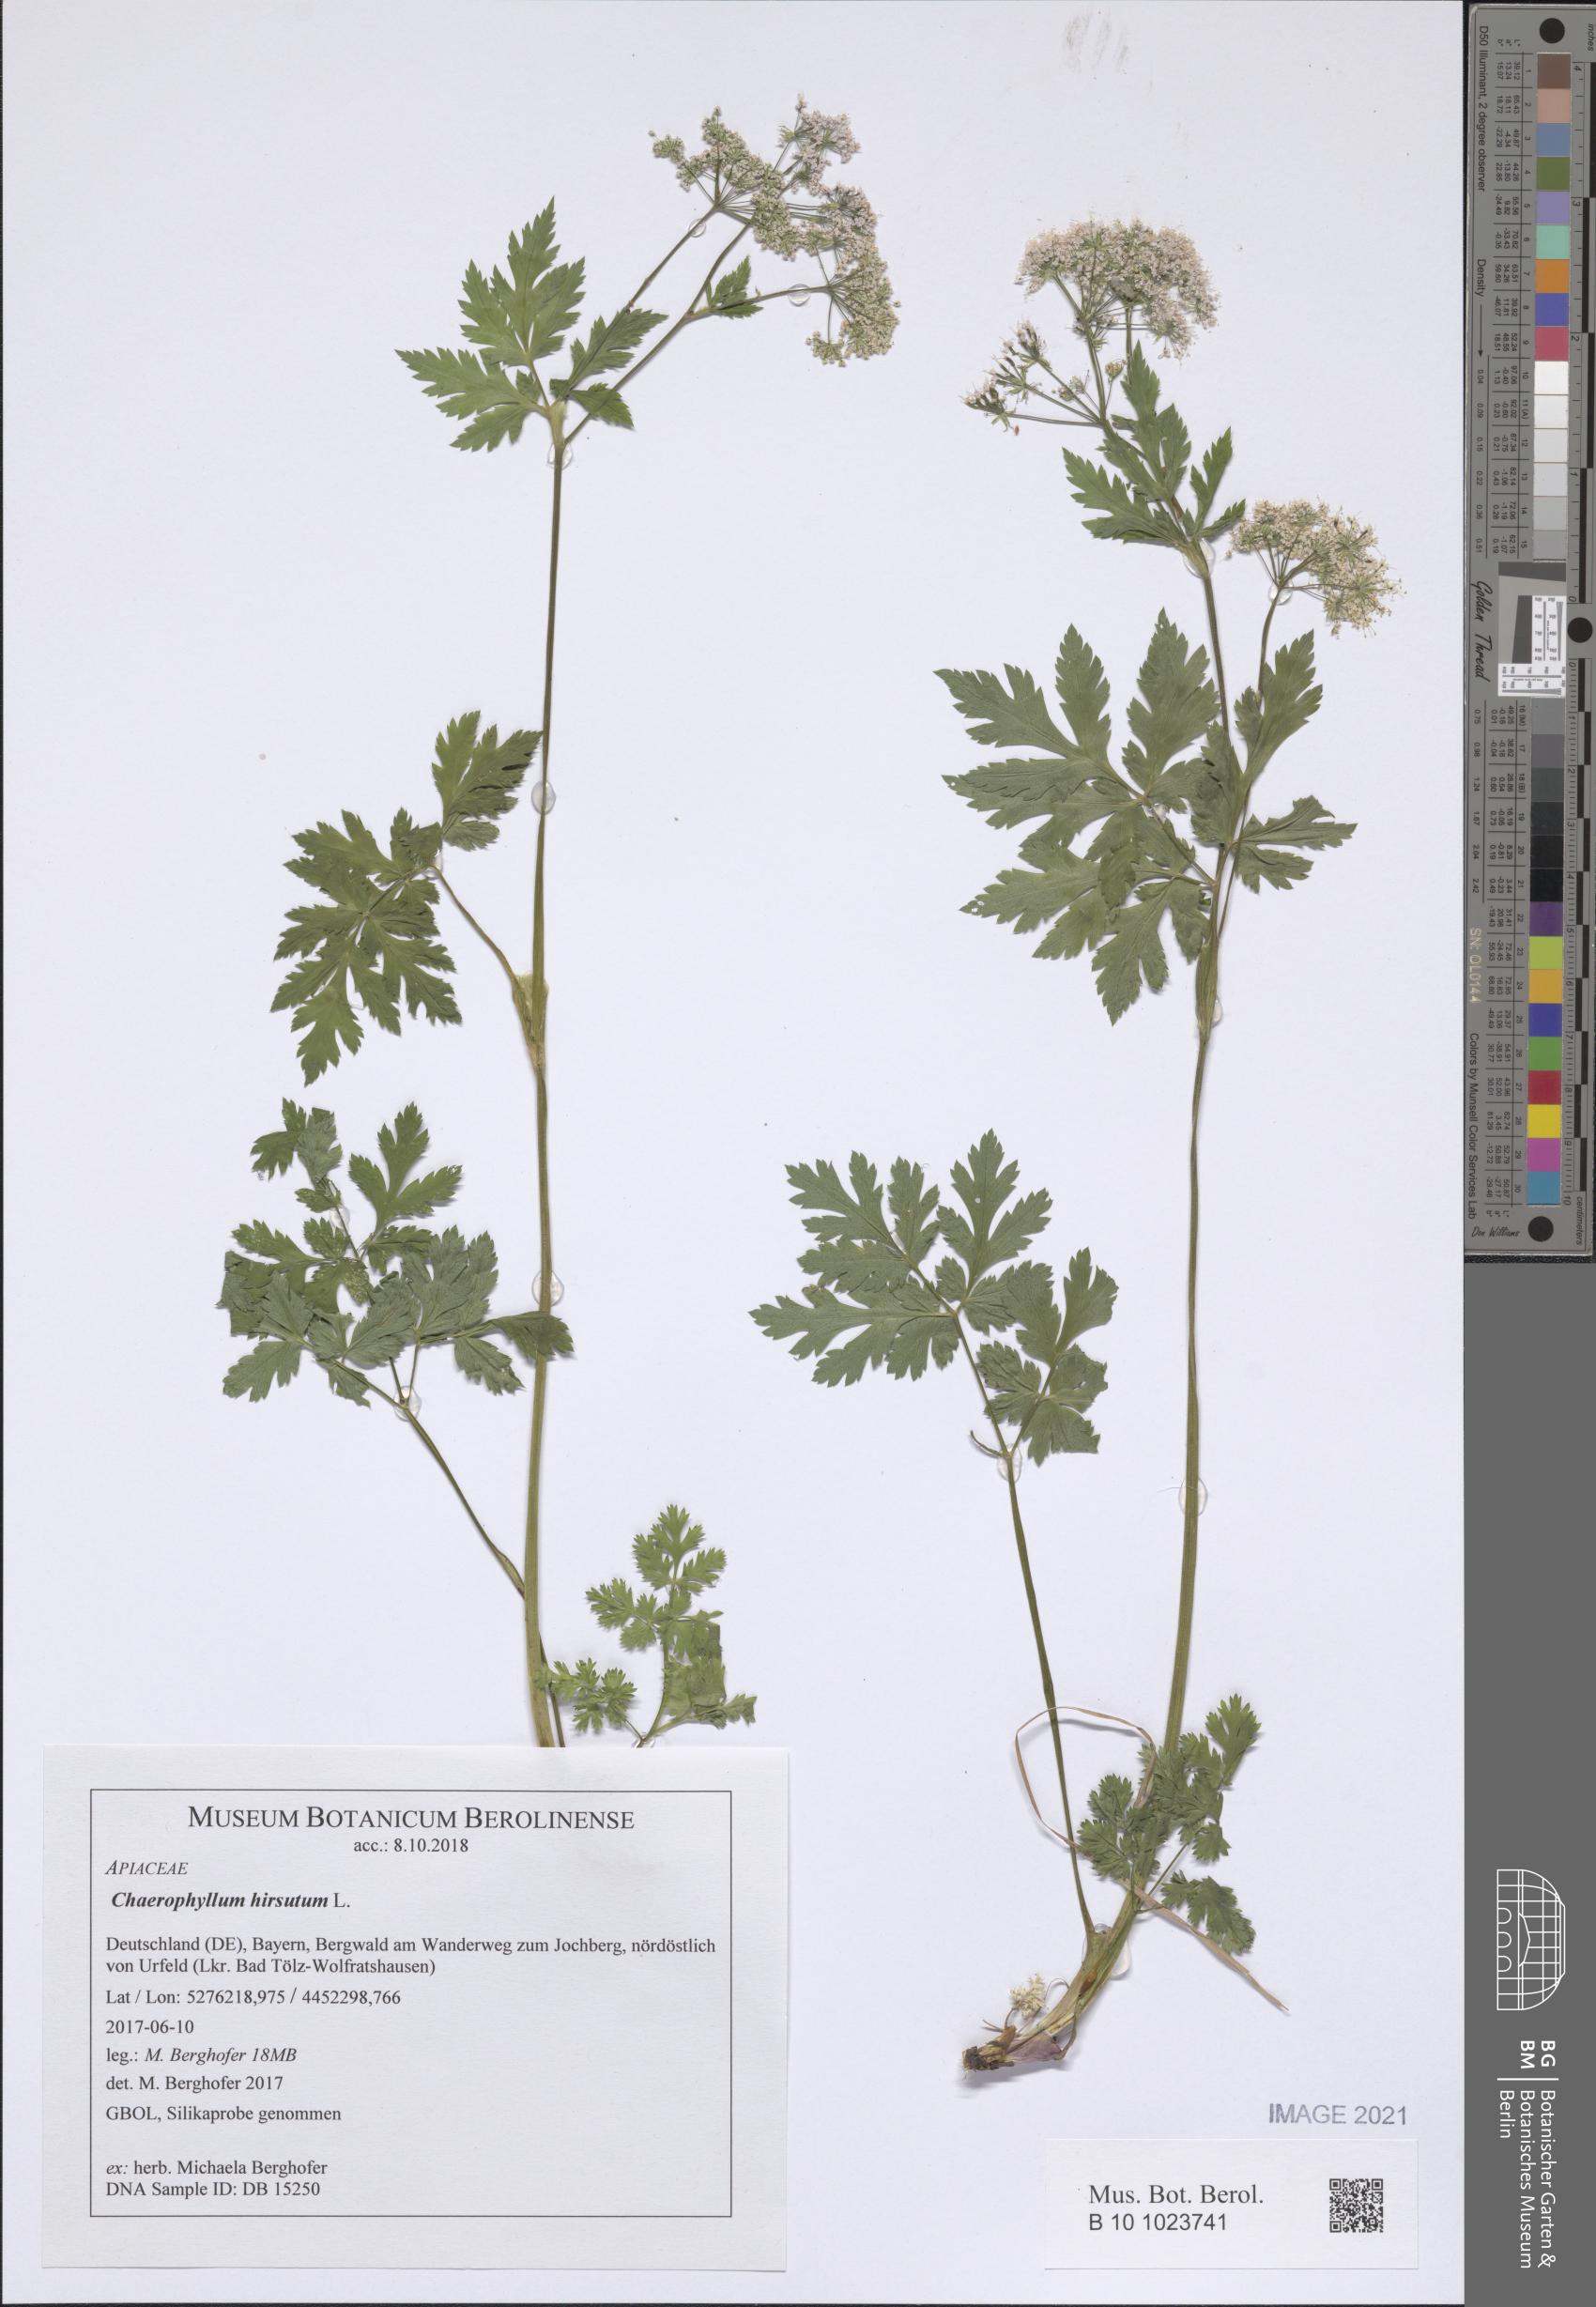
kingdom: Plantae
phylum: Tracheophyta
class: Magnoliopsida
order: Apiales
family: Apiaceae
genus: Chaerophyllum
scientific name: Chaerophyllum hirsutum
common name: Hairy chervil
